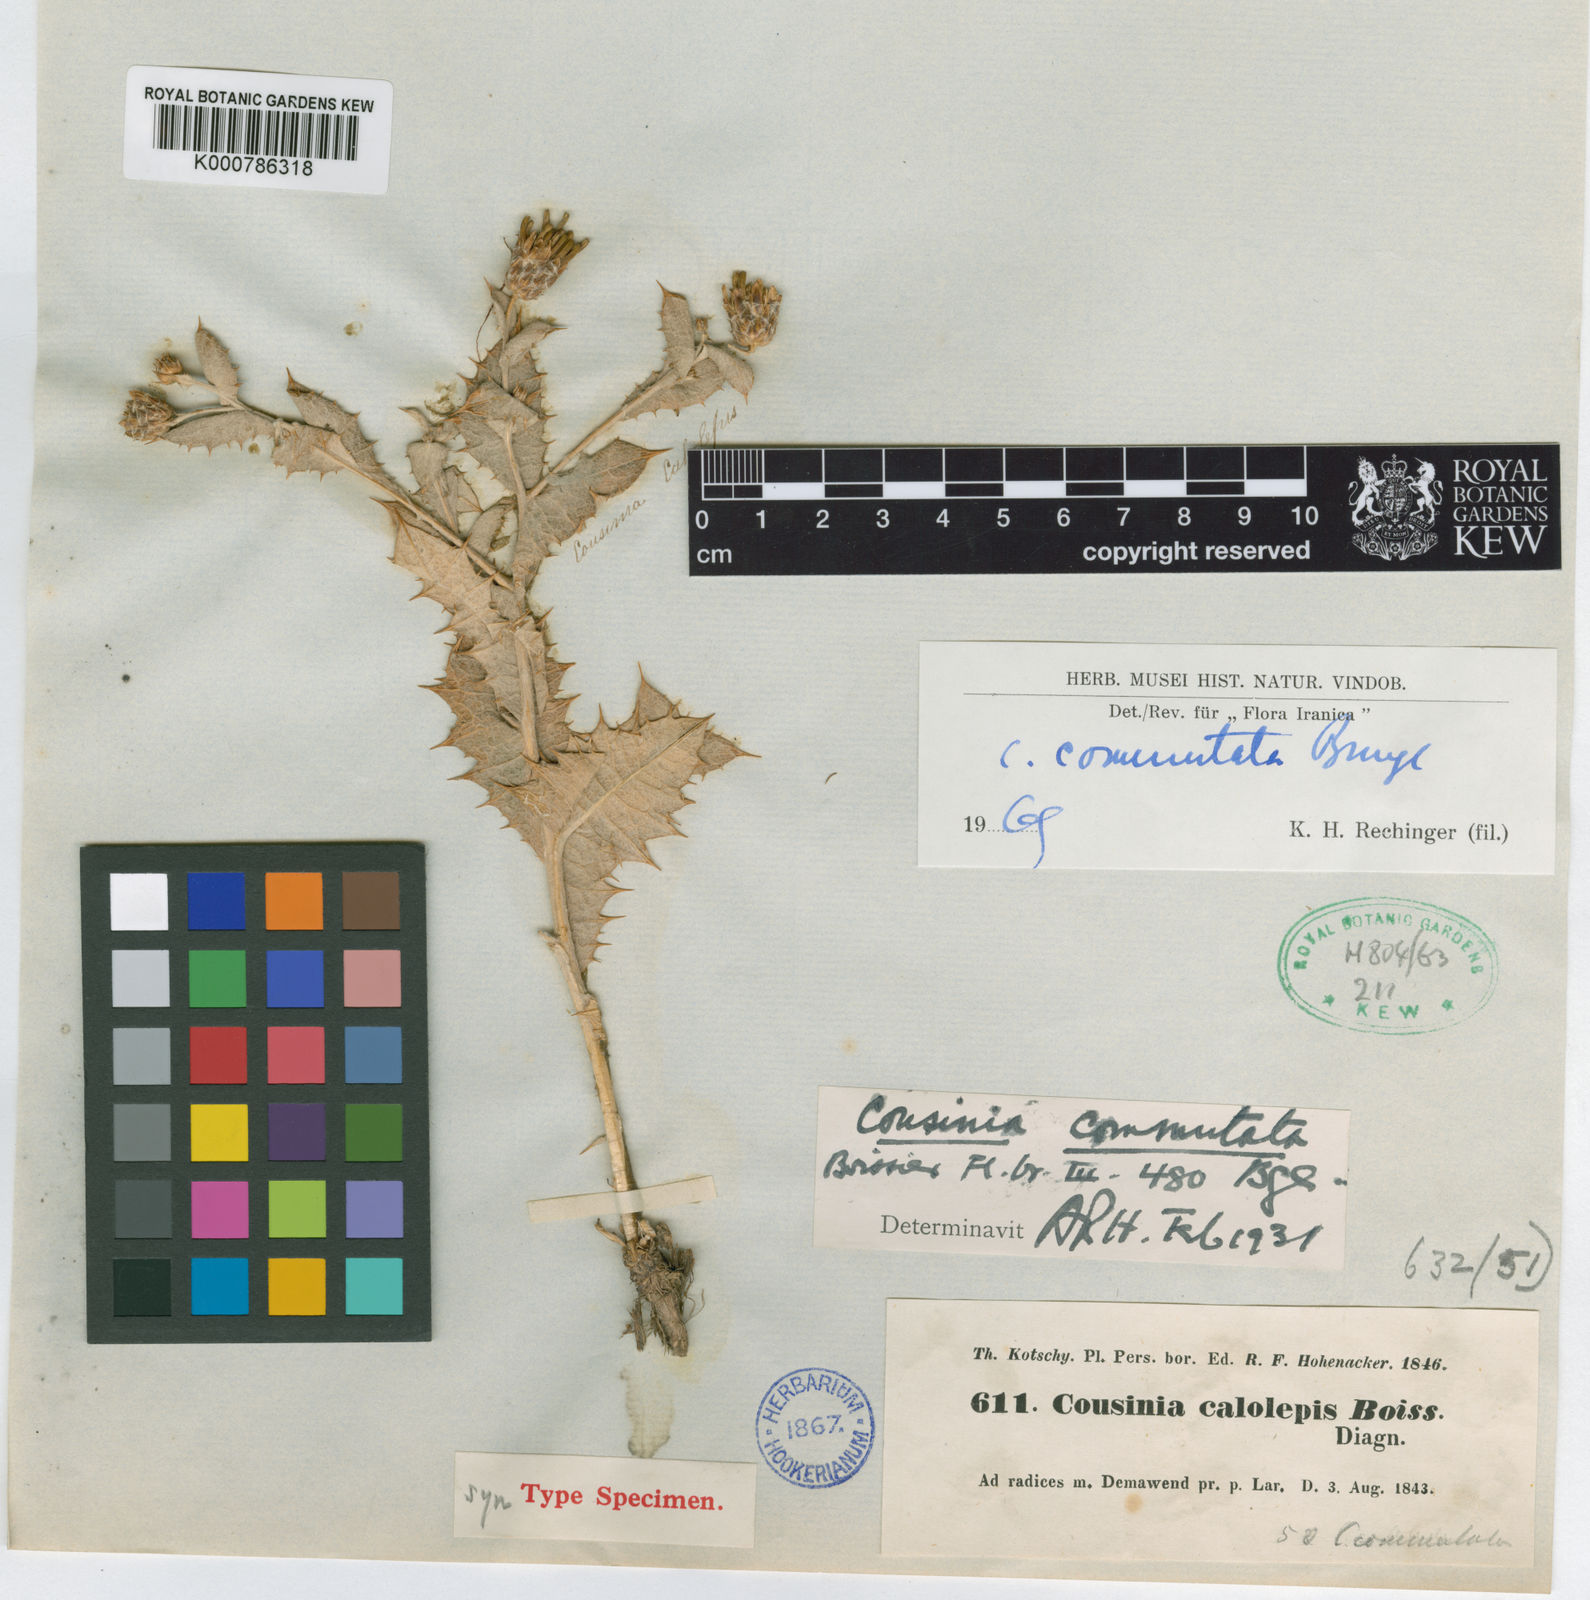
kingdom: Plantae
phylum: Tracheophyta
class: Magnoliopsida
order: Asterales
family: Asteraceae
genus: Cousinia
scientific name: Cousinia commutata
